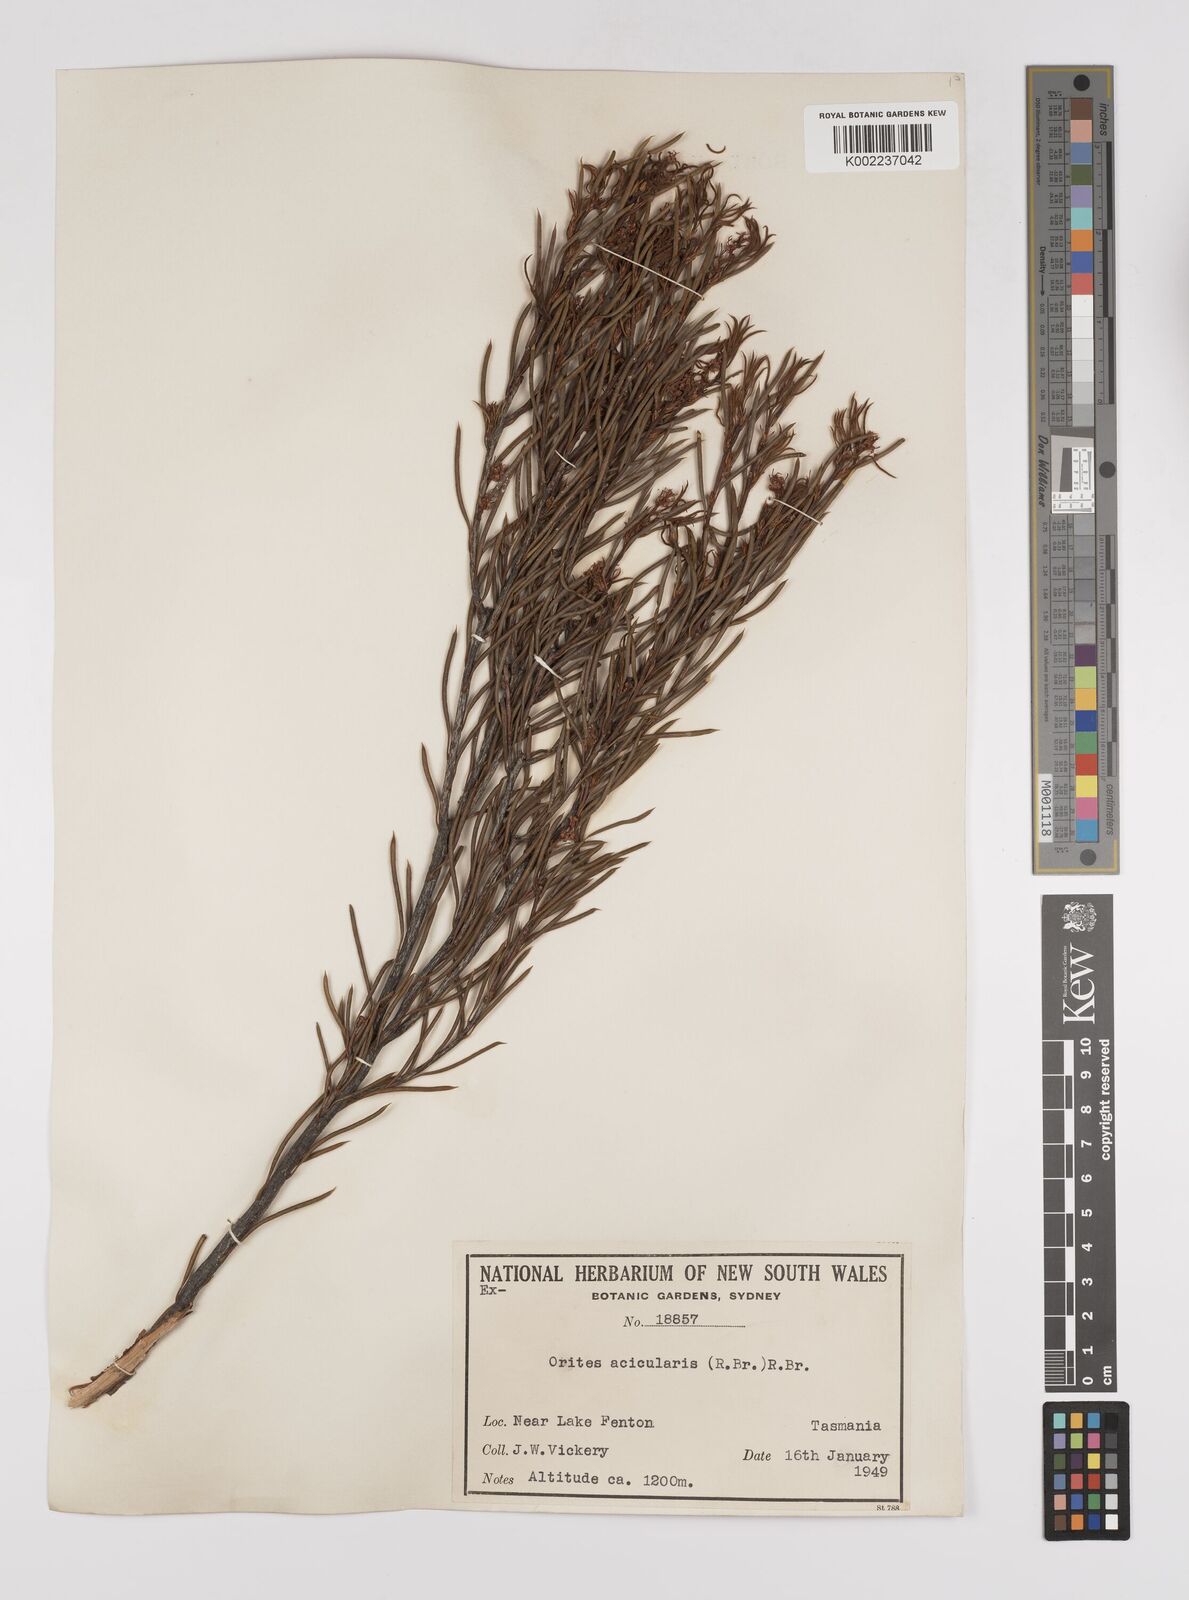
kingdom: Plantae
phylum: Tracheophyta
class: Magnoliopsida
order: Proteales
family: Proteaceae
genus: Orites
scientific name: Orites acicularis
